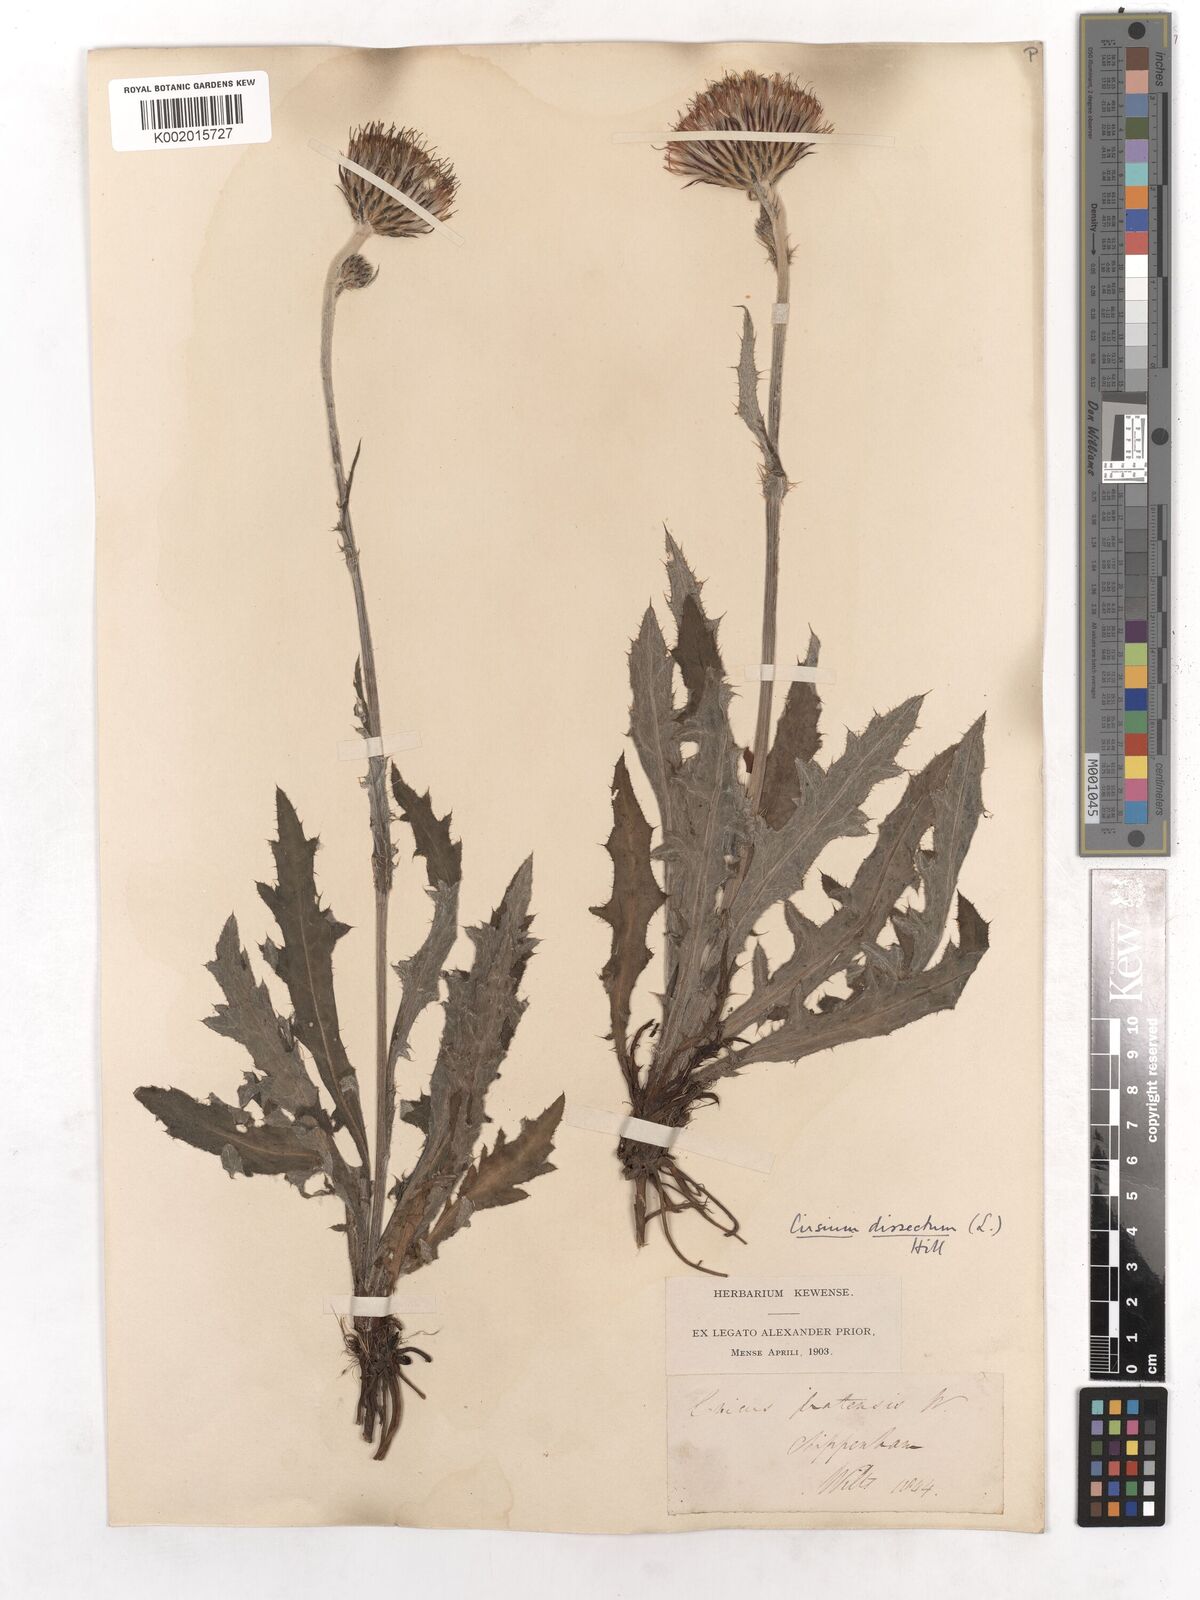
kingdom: Plantae
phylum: Tracheophyta
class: Magnoliopsida
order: Asterales
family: Asteraceae
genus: Cirsium
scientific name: Cirsium dissectum
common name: Meadow thistle
